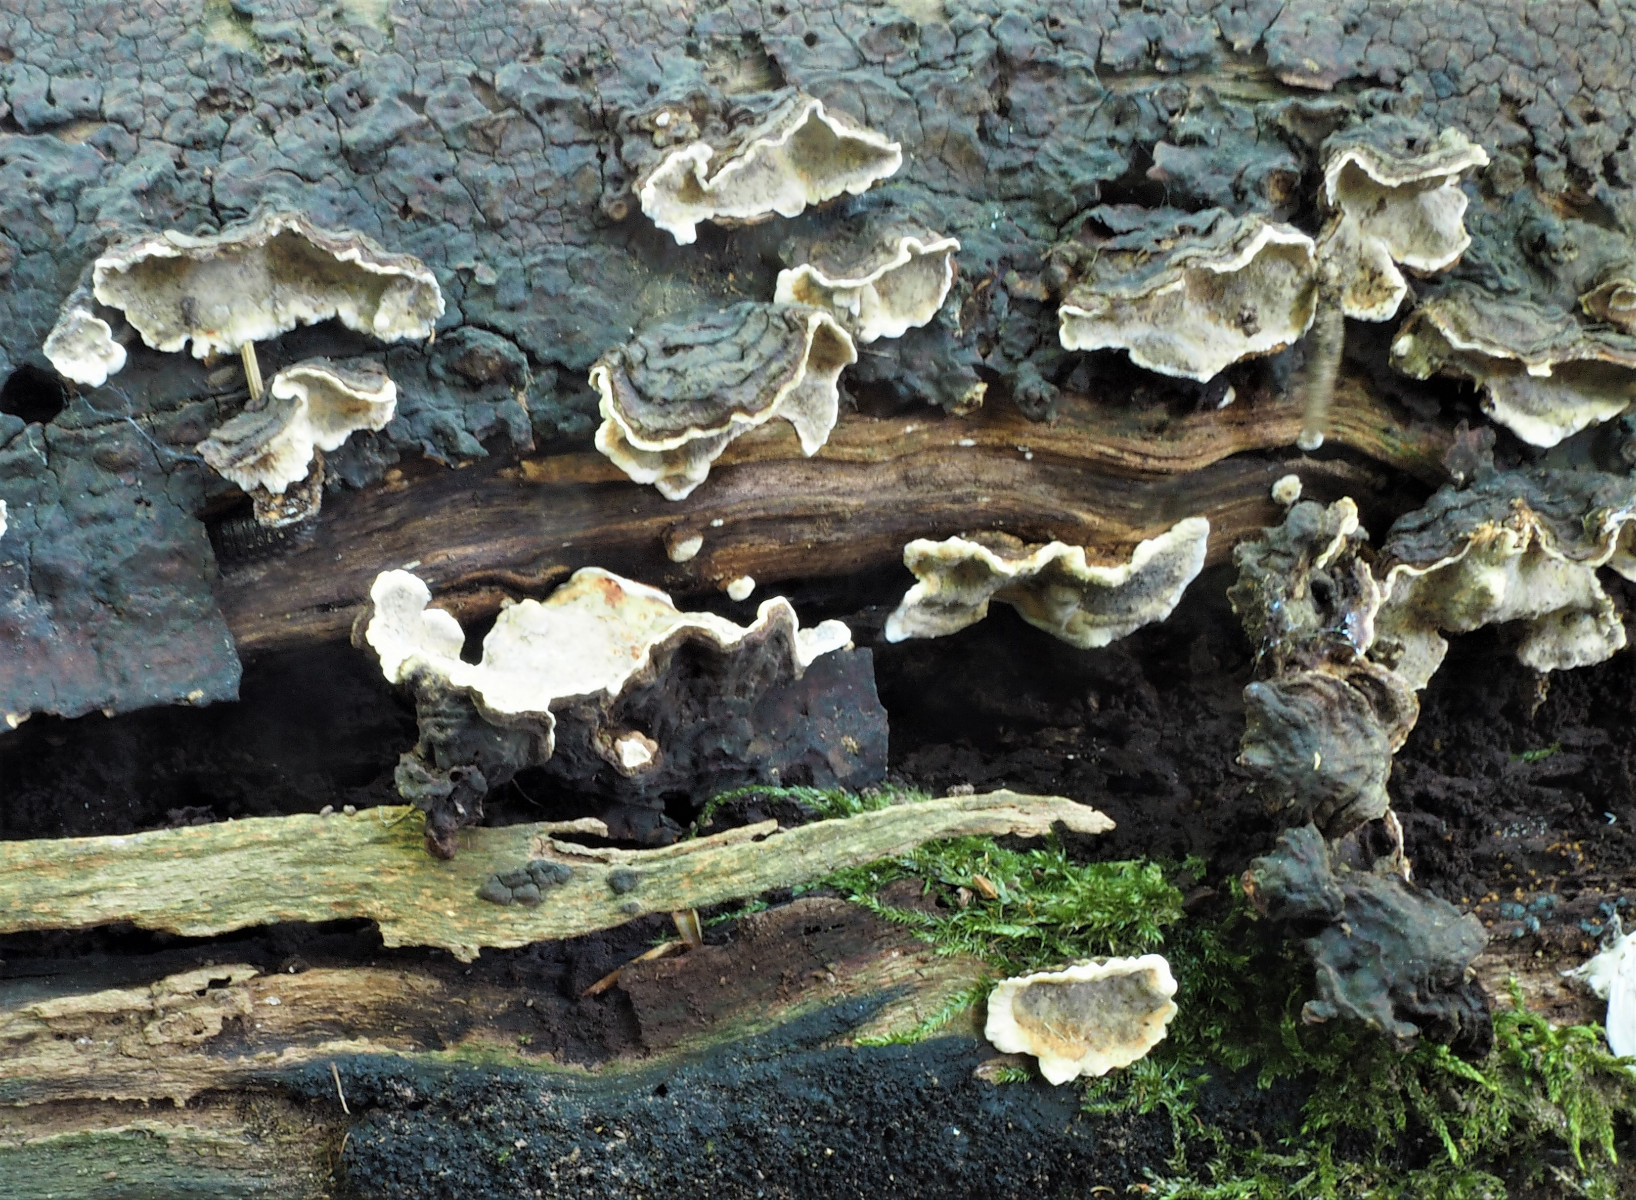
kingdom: Fungi
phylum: Basidiomycota
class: Agaricomycetes
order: Russulales
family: Stereaceae
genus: Stereum
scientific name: Stereum rugosum
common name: rynket lædersvamp
